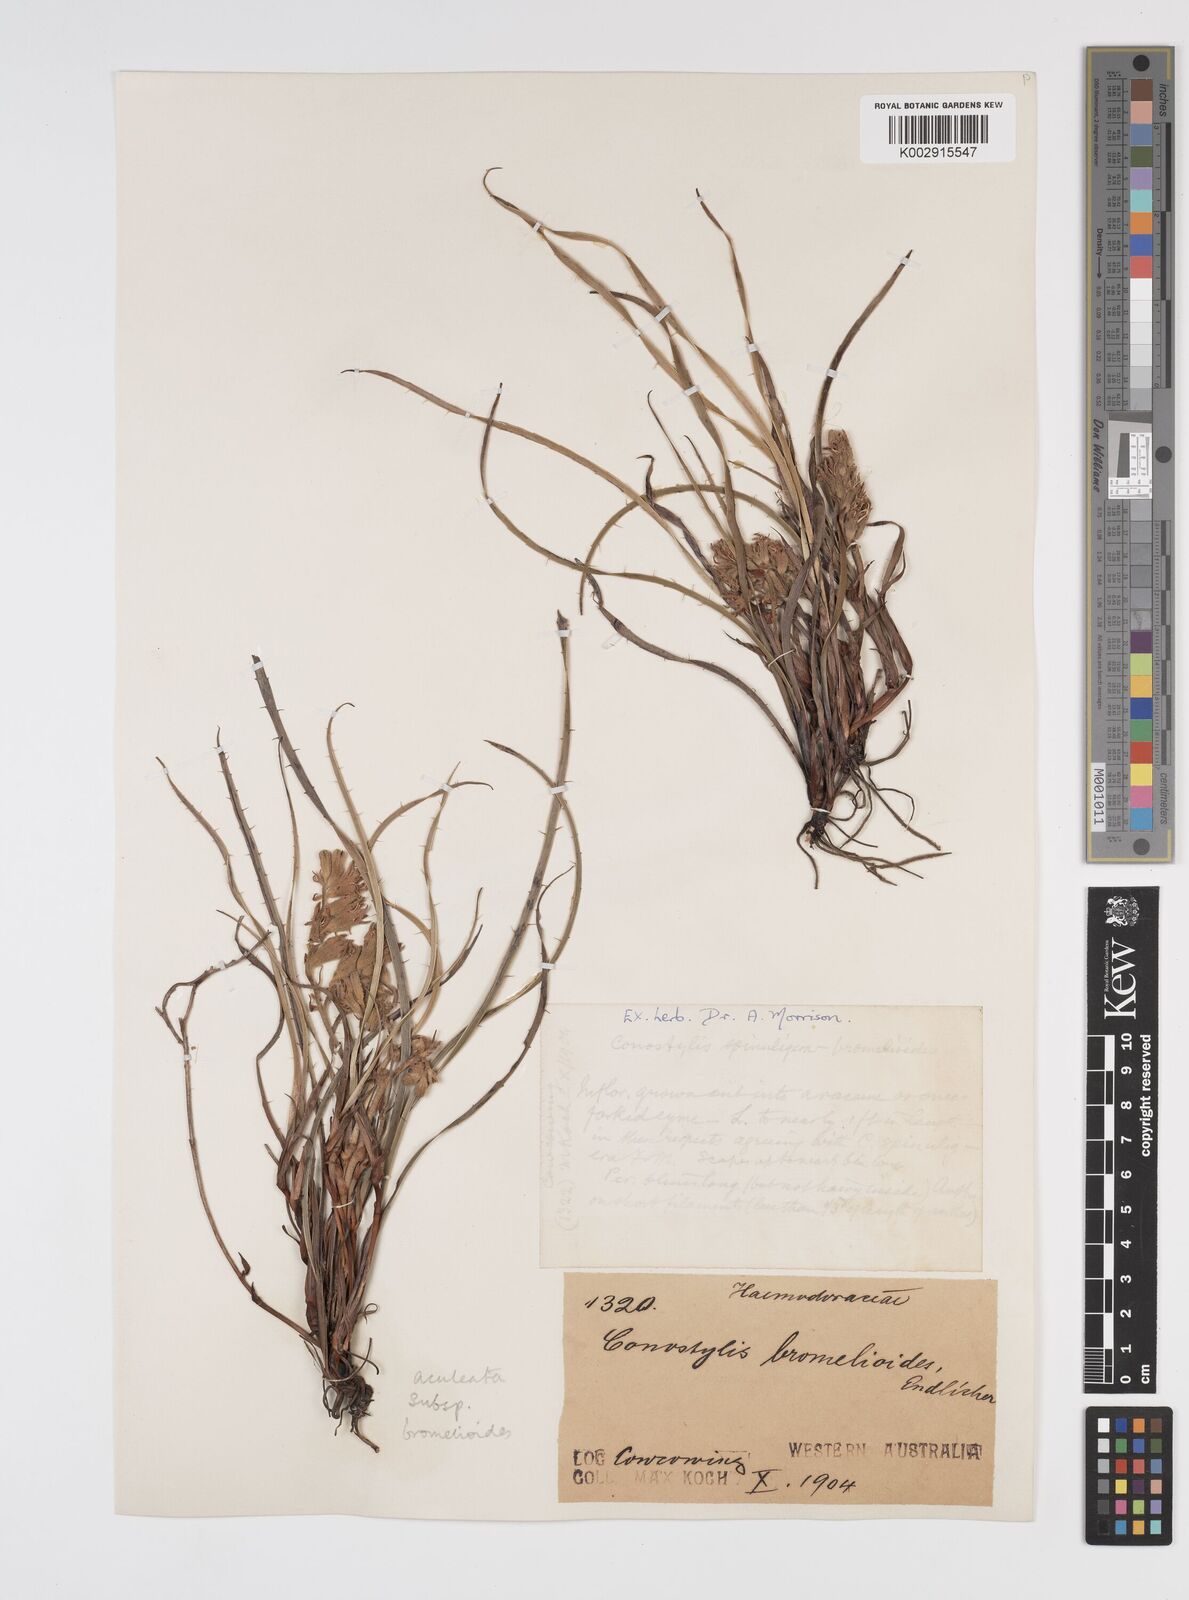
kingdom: Plantae
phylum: Tracheophyta
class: Liliopsida
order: Commelinales
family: Haemodoraceae
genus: Conostylis
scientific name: Conostylis aculeata
